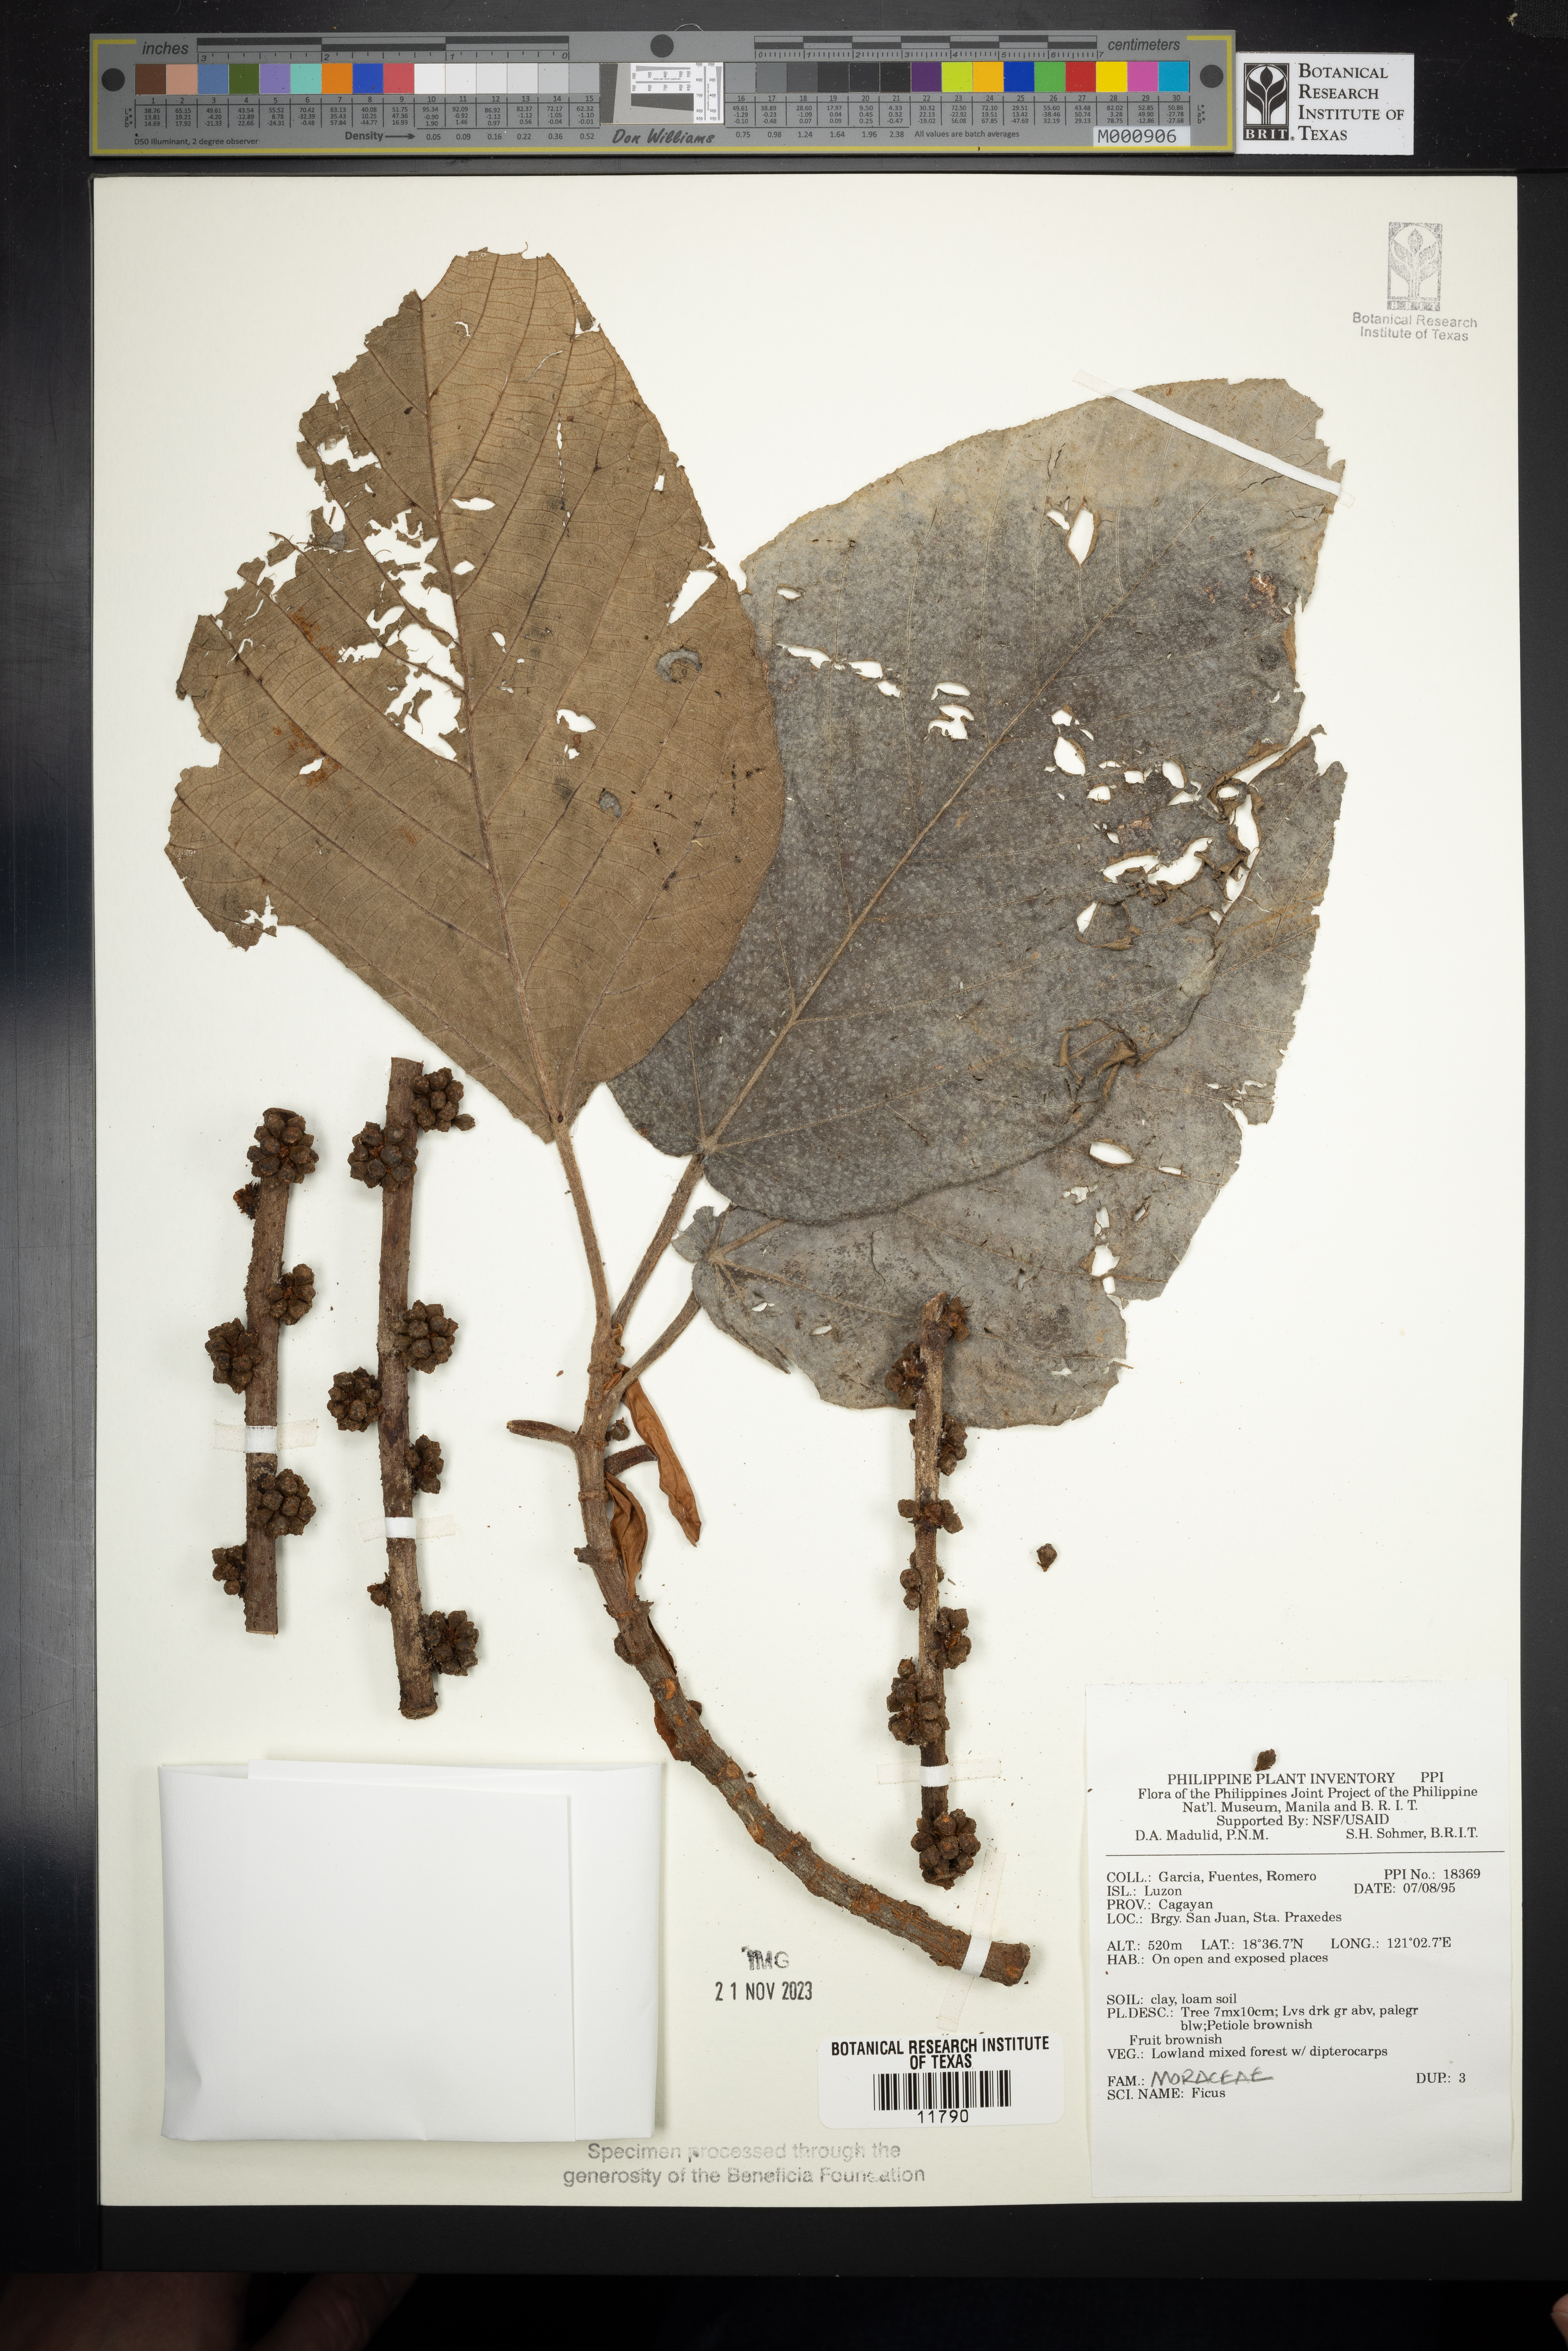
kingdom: Plantae
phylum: Tracheophyta
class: Magnoliopsida
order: Rosales
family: Moraceae
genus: Ficus
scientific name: Ficus
